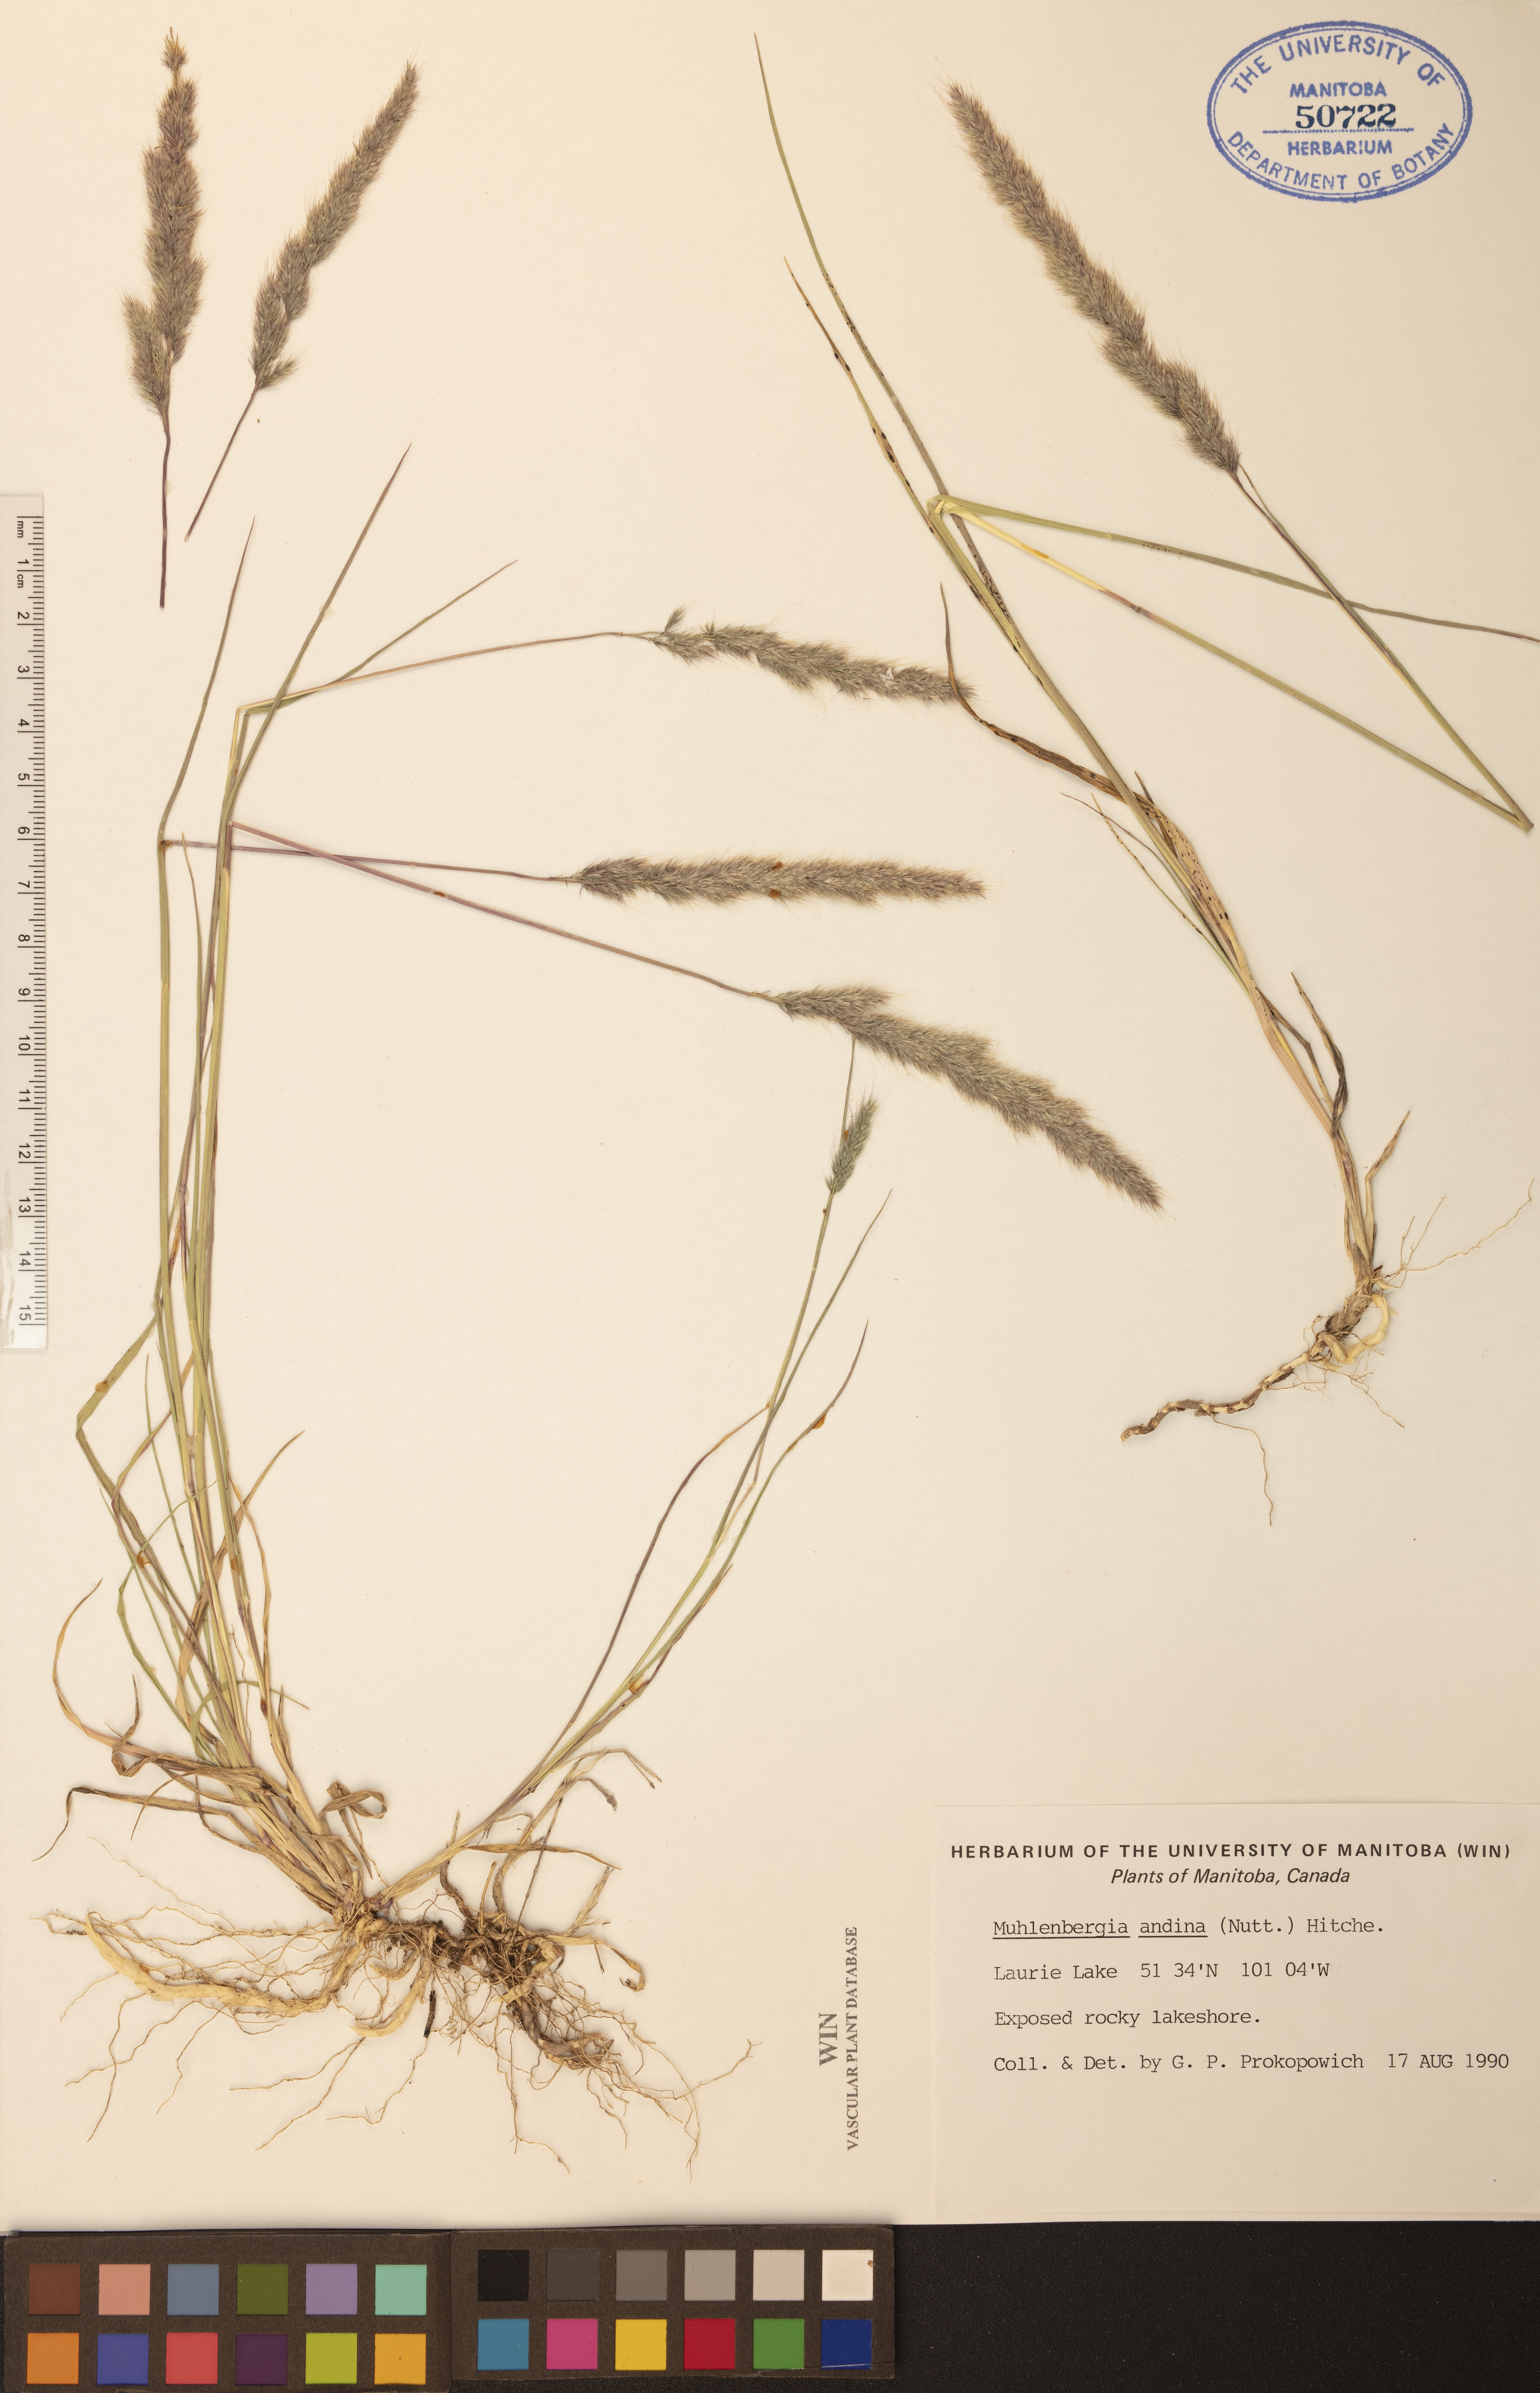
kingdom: Plantae
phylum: Tracheophyta
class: Liliopsida
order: Poales
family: Poaceae
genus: Muhlenbergia
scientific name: Muhlenbergia andina
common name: Foxtail muhly
